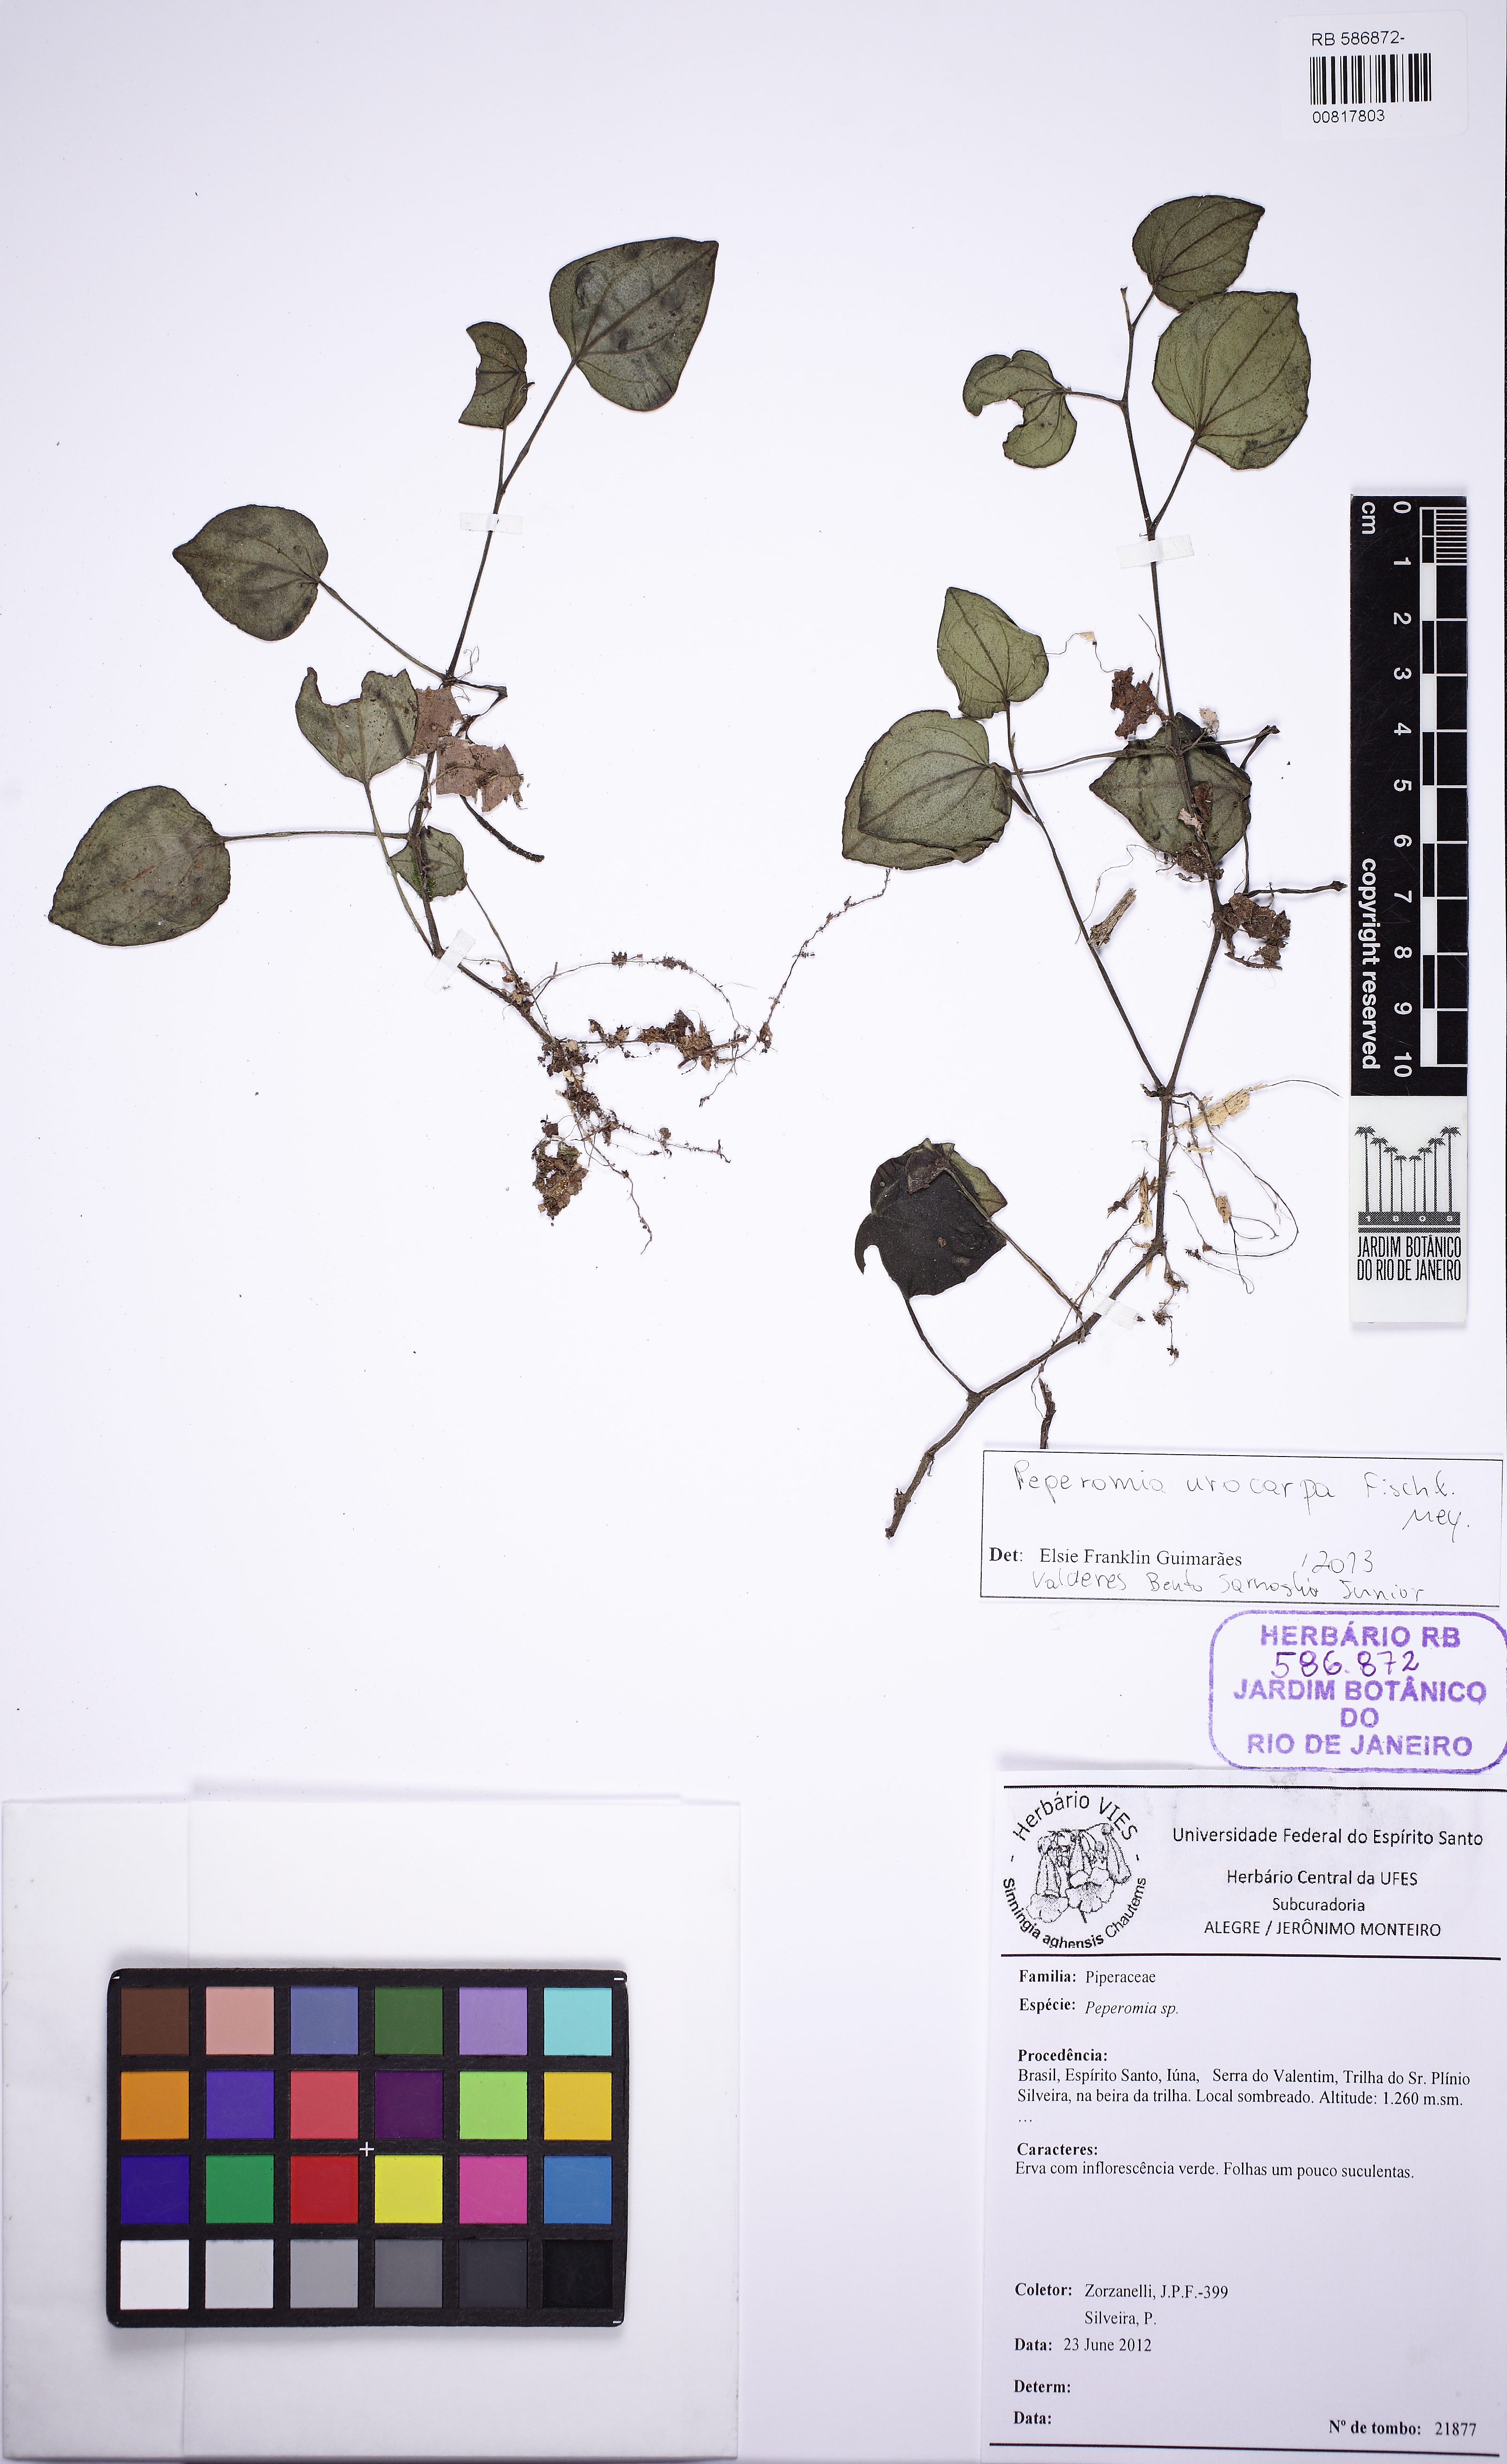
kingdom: Plantae
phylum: Tracheophyta
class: Magnoliopsida
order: Piperales
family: Piperaceae
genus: Peperomia
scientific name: Peperomia urocarpa
